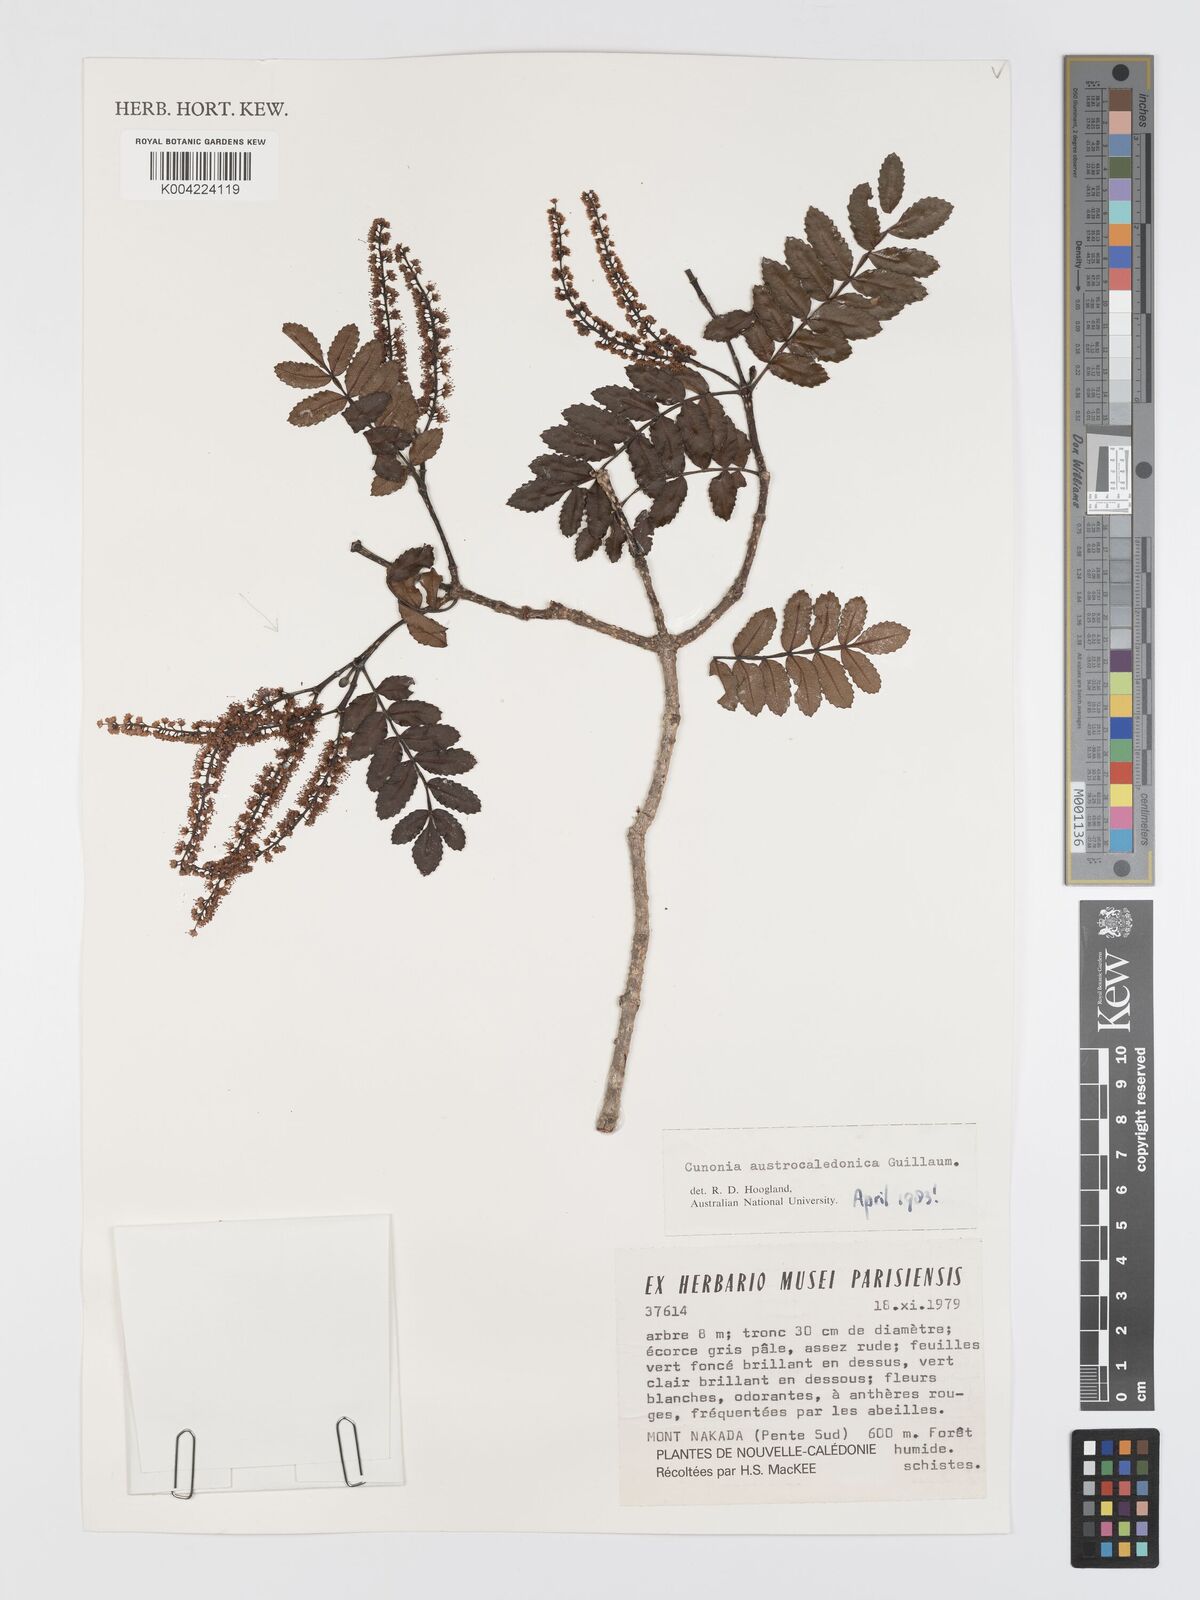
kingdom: Plantae
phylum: Tracheophyta
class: Magnoliopsida
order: Oxalidales
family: Cunoniaceae
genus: Cunonia
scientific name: Cunonia austrocaledonica
